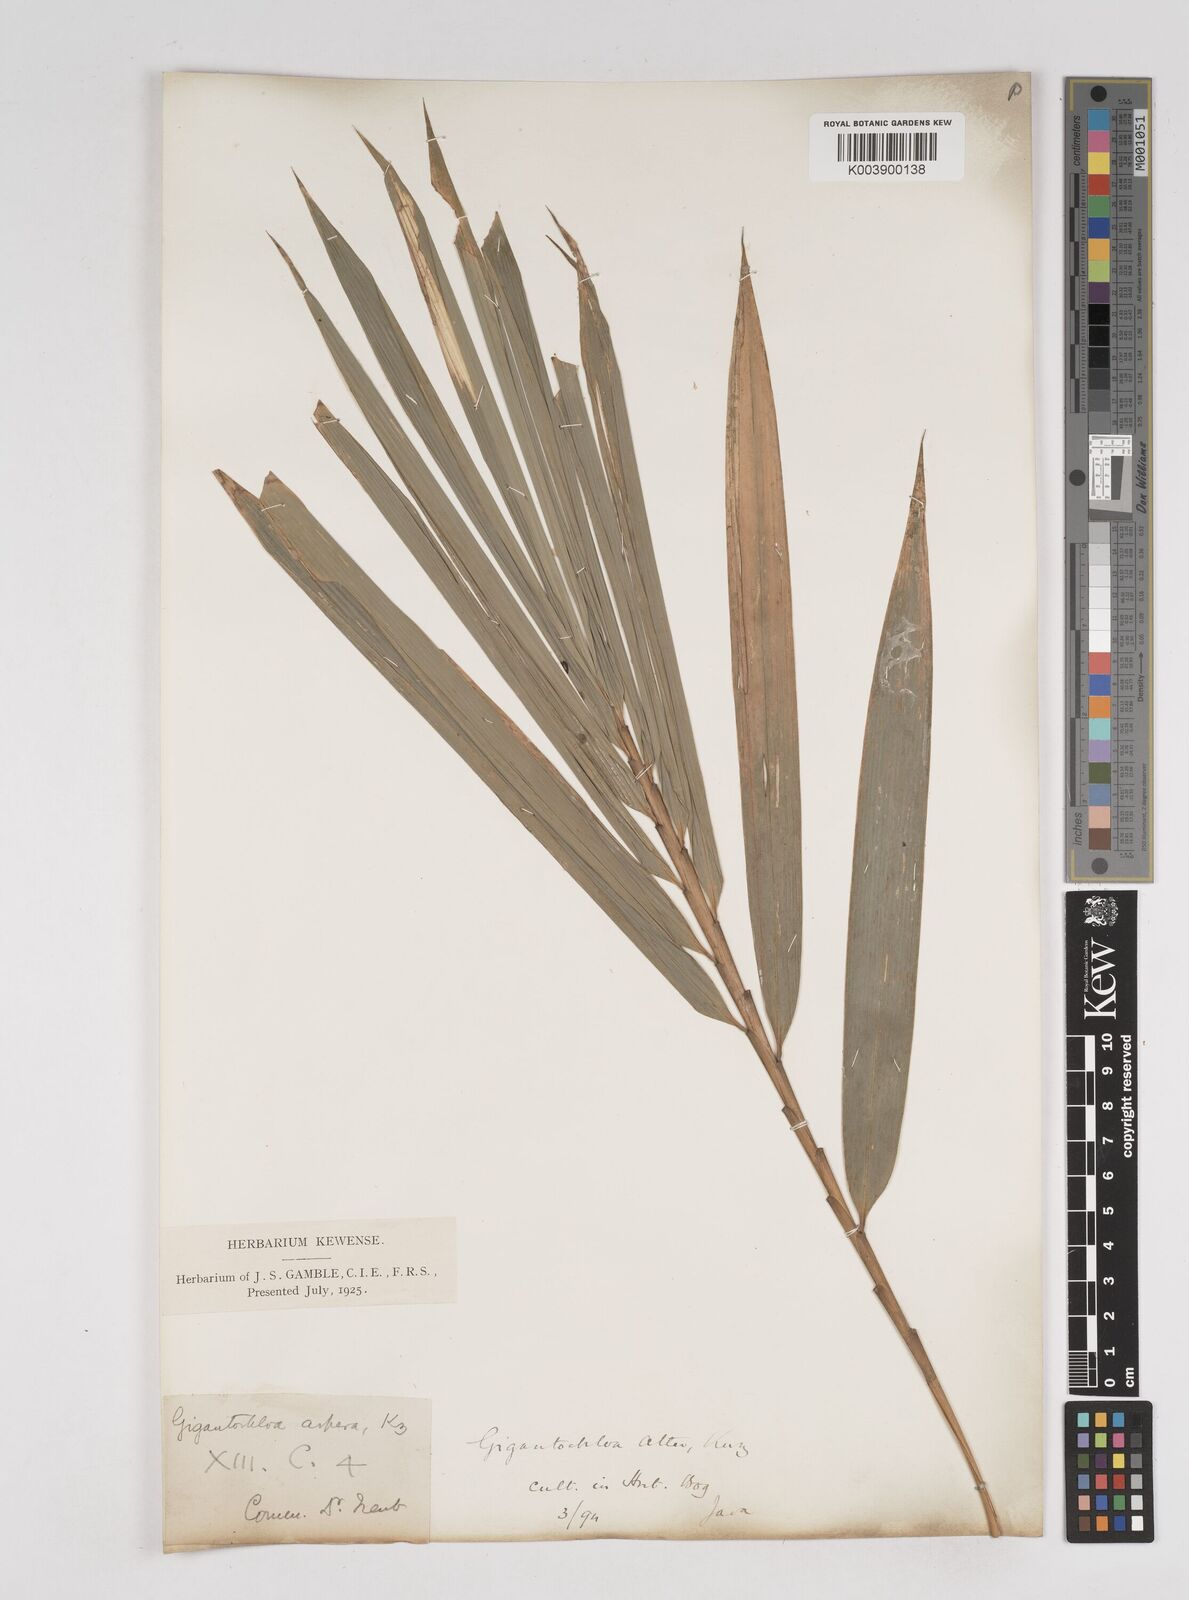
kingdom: Plantae
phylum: Tracheophyta
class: Liliopsida
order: Poales
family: Poaceae
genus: Gigantochloa
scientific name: Gigantochloa atter
